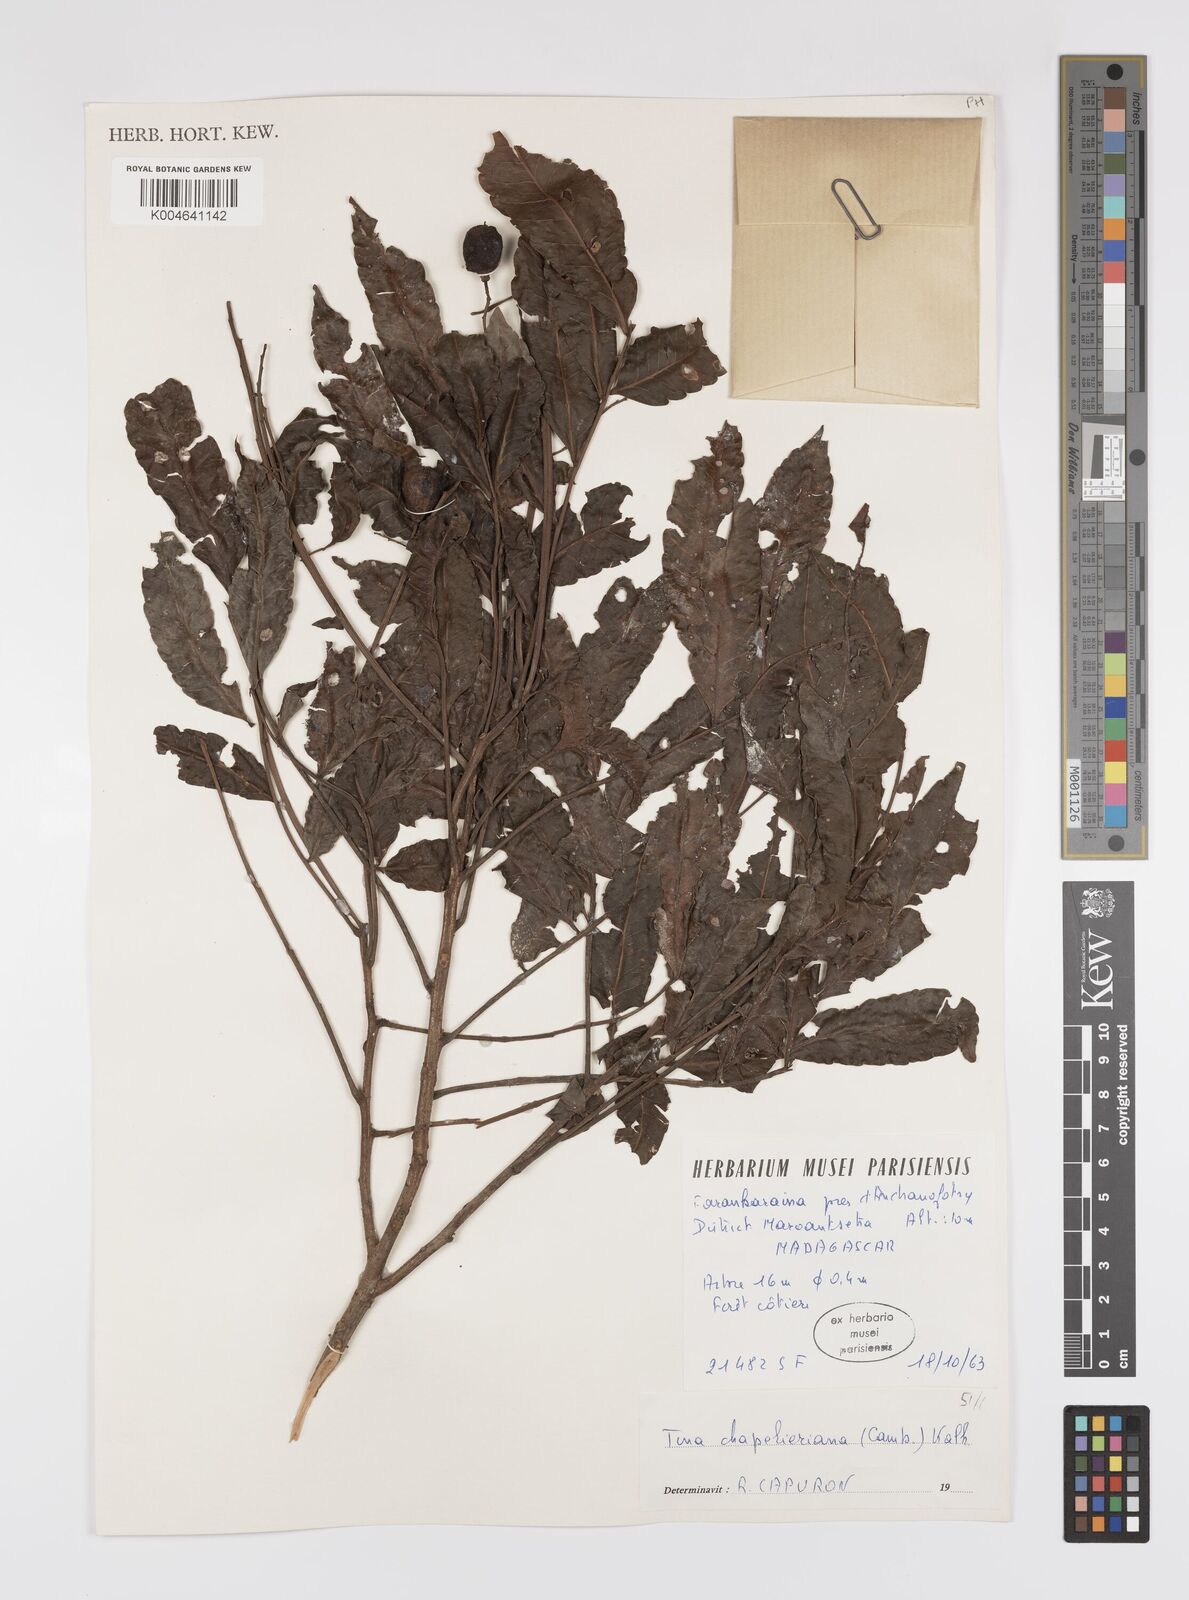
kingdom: Plantae
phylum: Tracheophyta
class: Magnoliopsida
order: Sapindales
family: Sapindaceae
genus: Tina
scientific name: Tina chapelieriana
